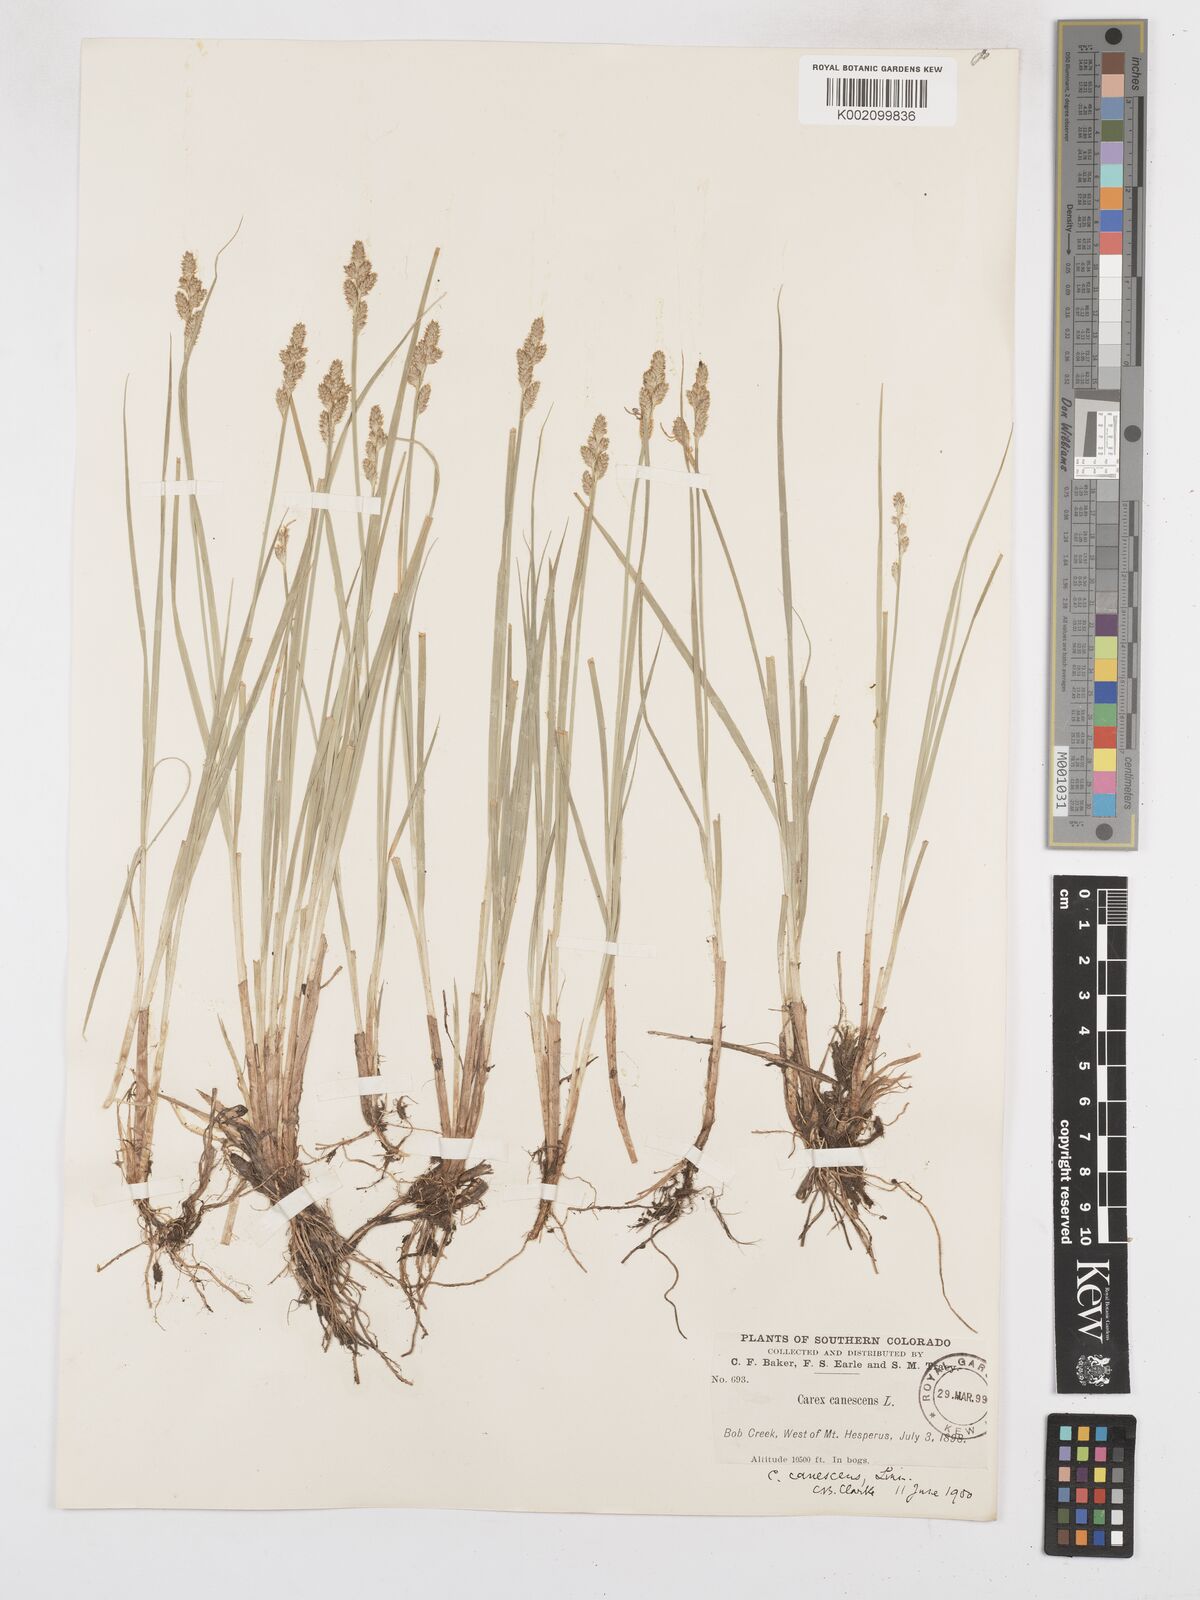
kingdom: Plantae
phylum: Tracheophyta
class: Liliopsida
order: Poales
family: Cyperaceae
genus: Carex
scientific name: Carex curta
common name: White sedge
